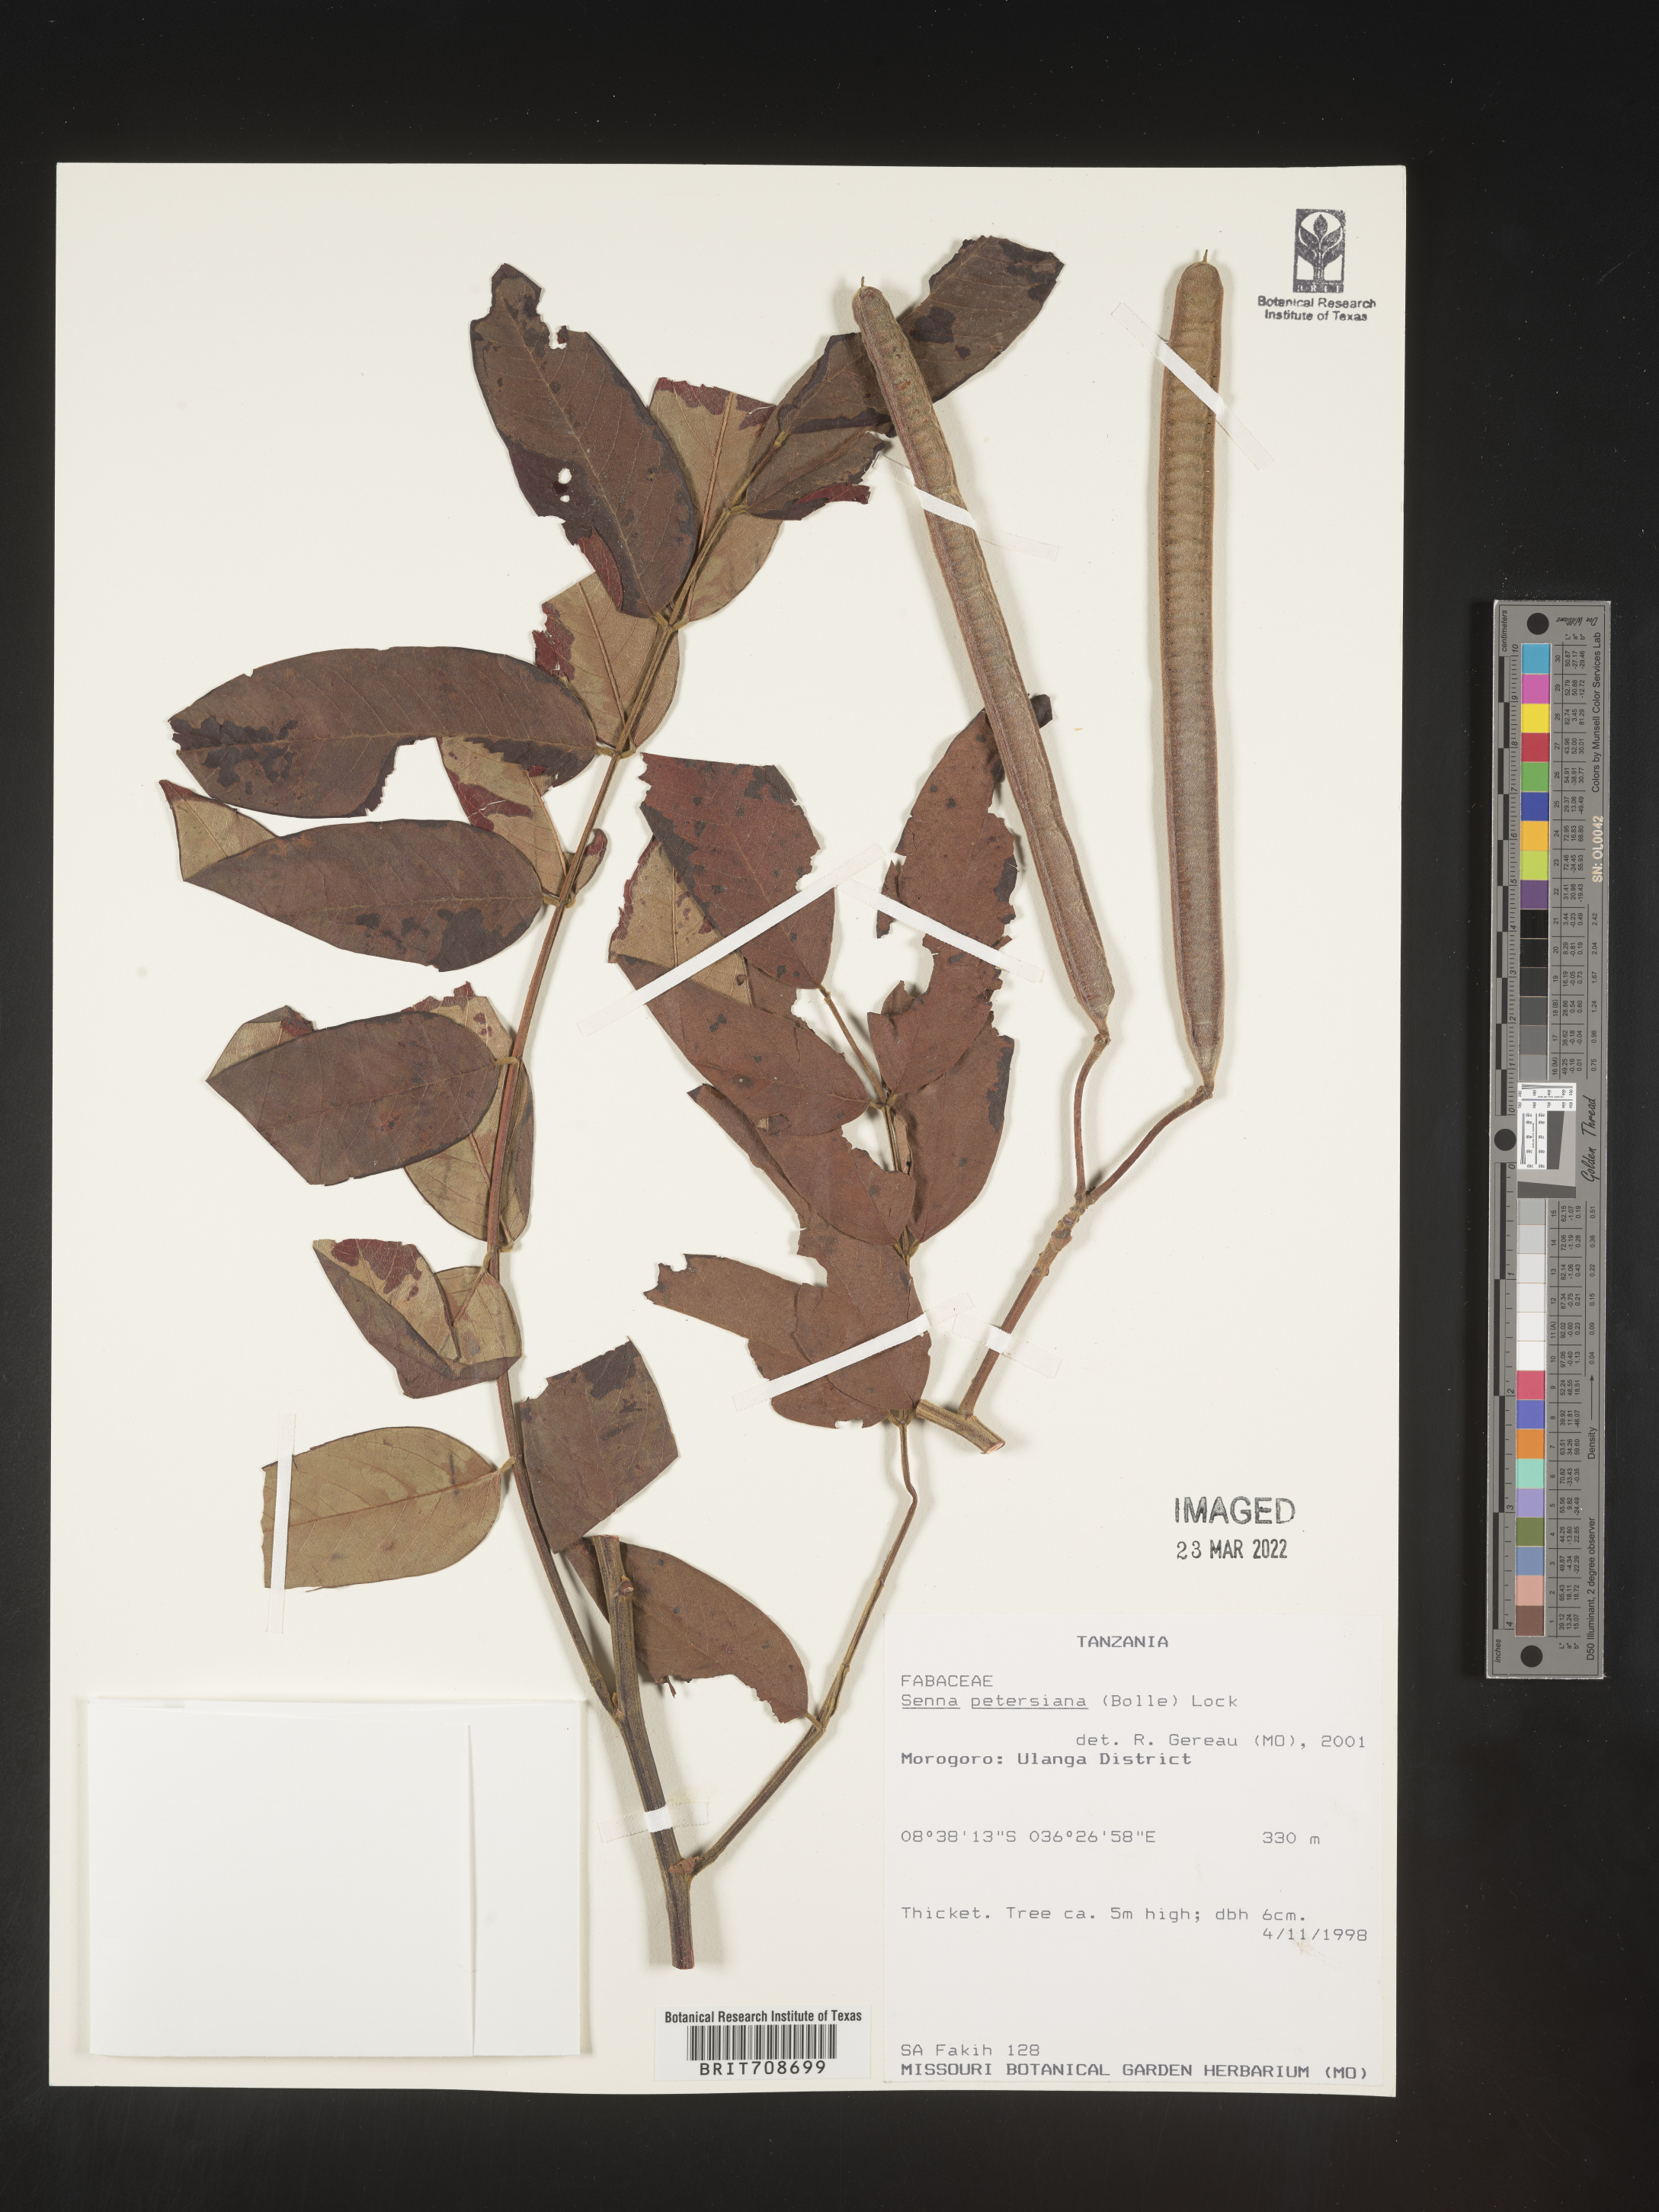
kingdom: Plantae
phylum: Tracheophyta
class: Magnoliopsida
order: Fabales
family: Fabaceae
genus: Senna
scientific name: Senna
